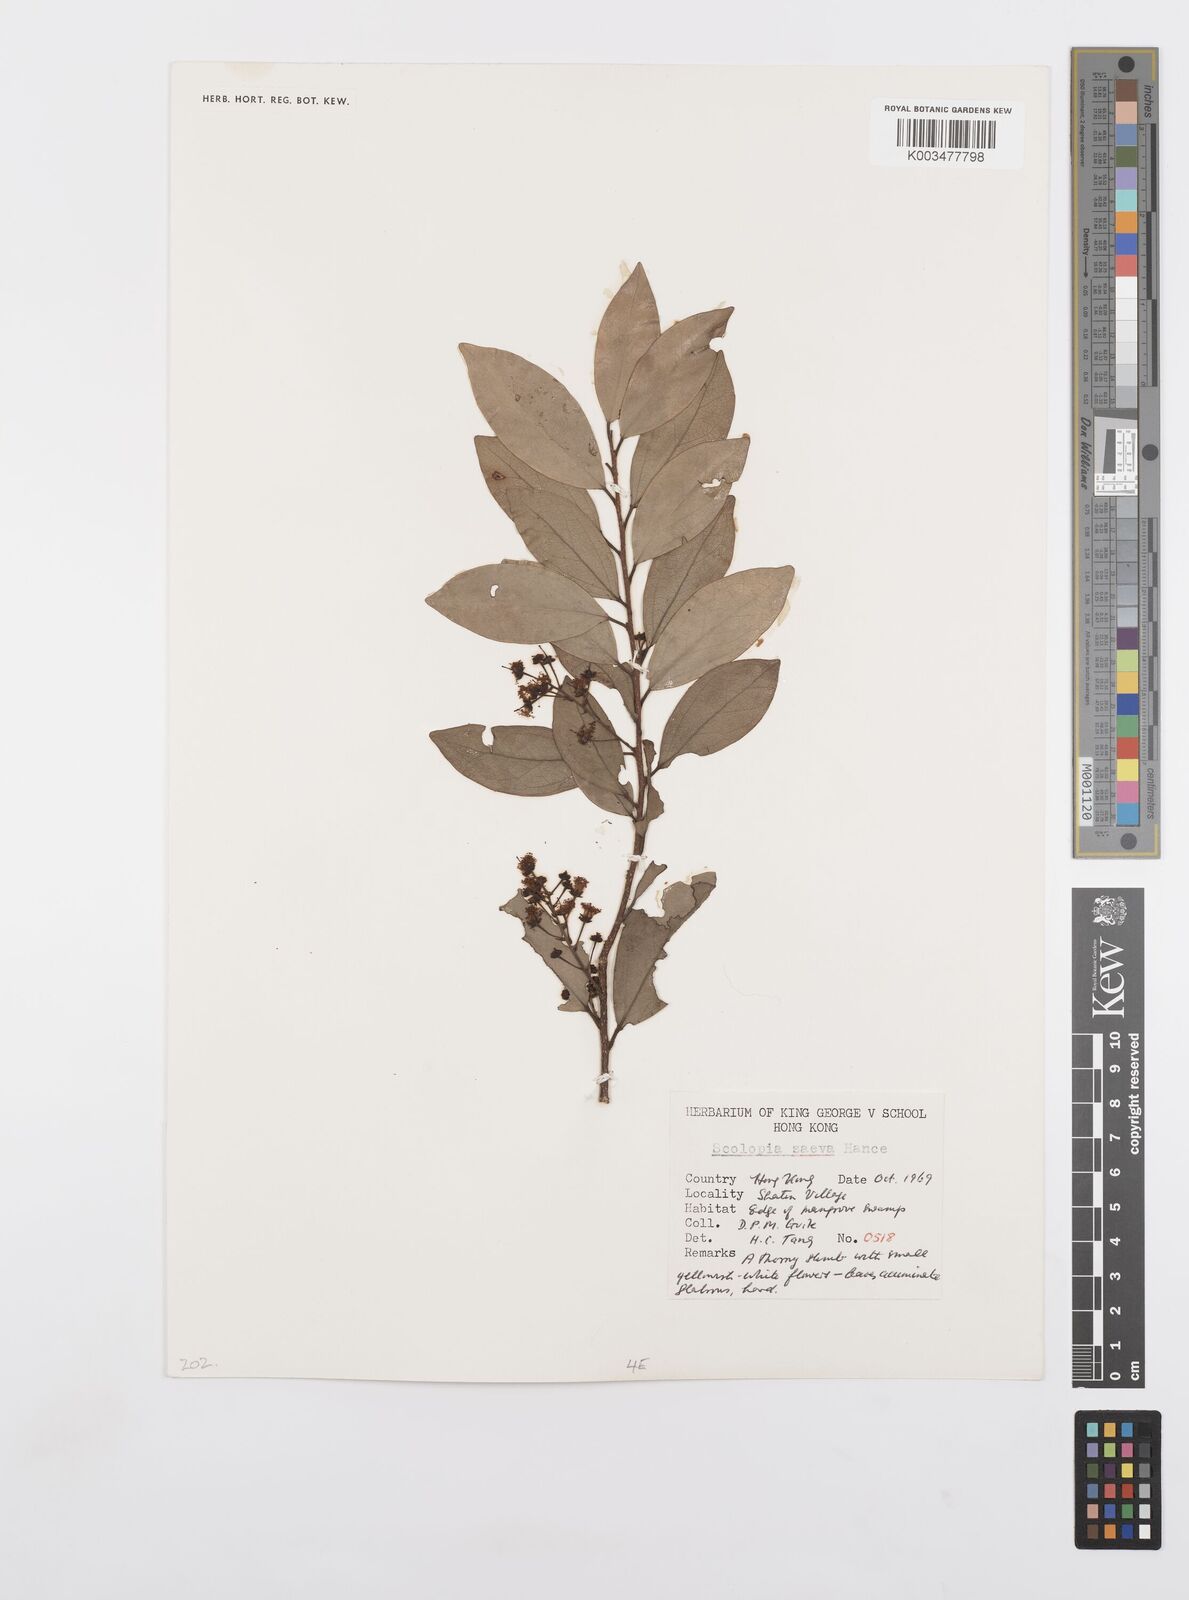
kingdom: Plantae
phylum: Tracheophyta
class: Magnoliopsida
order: Malpighiales
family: Salicaceae
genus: Scolopia
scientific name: Scolopia saeva
